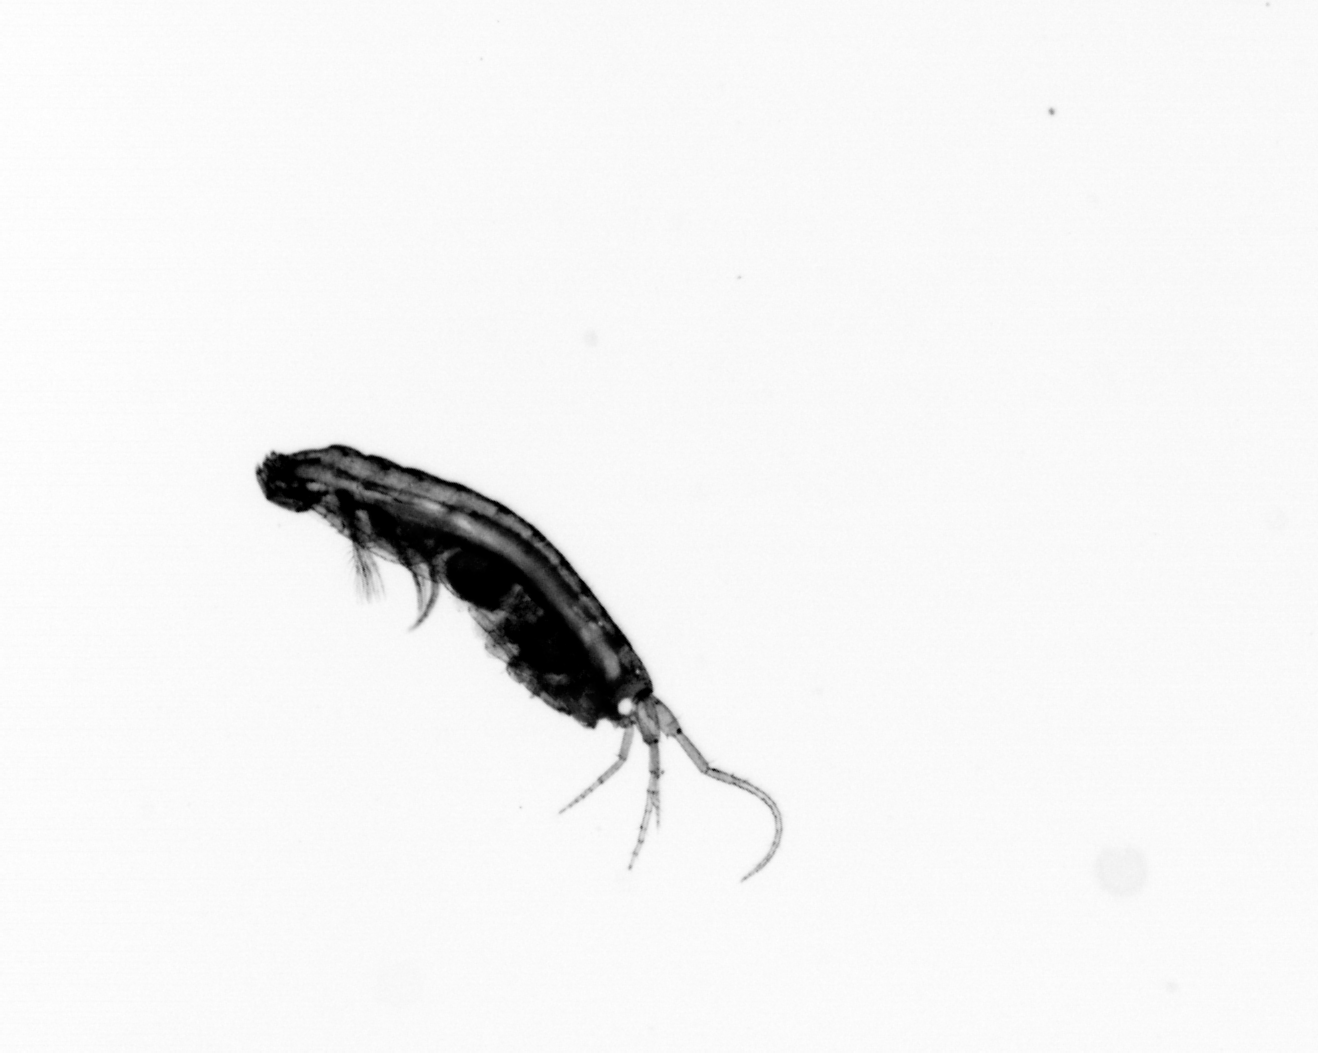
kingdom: Animalia
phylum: Annelida
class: Polychaeta
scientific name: Polychaeta
